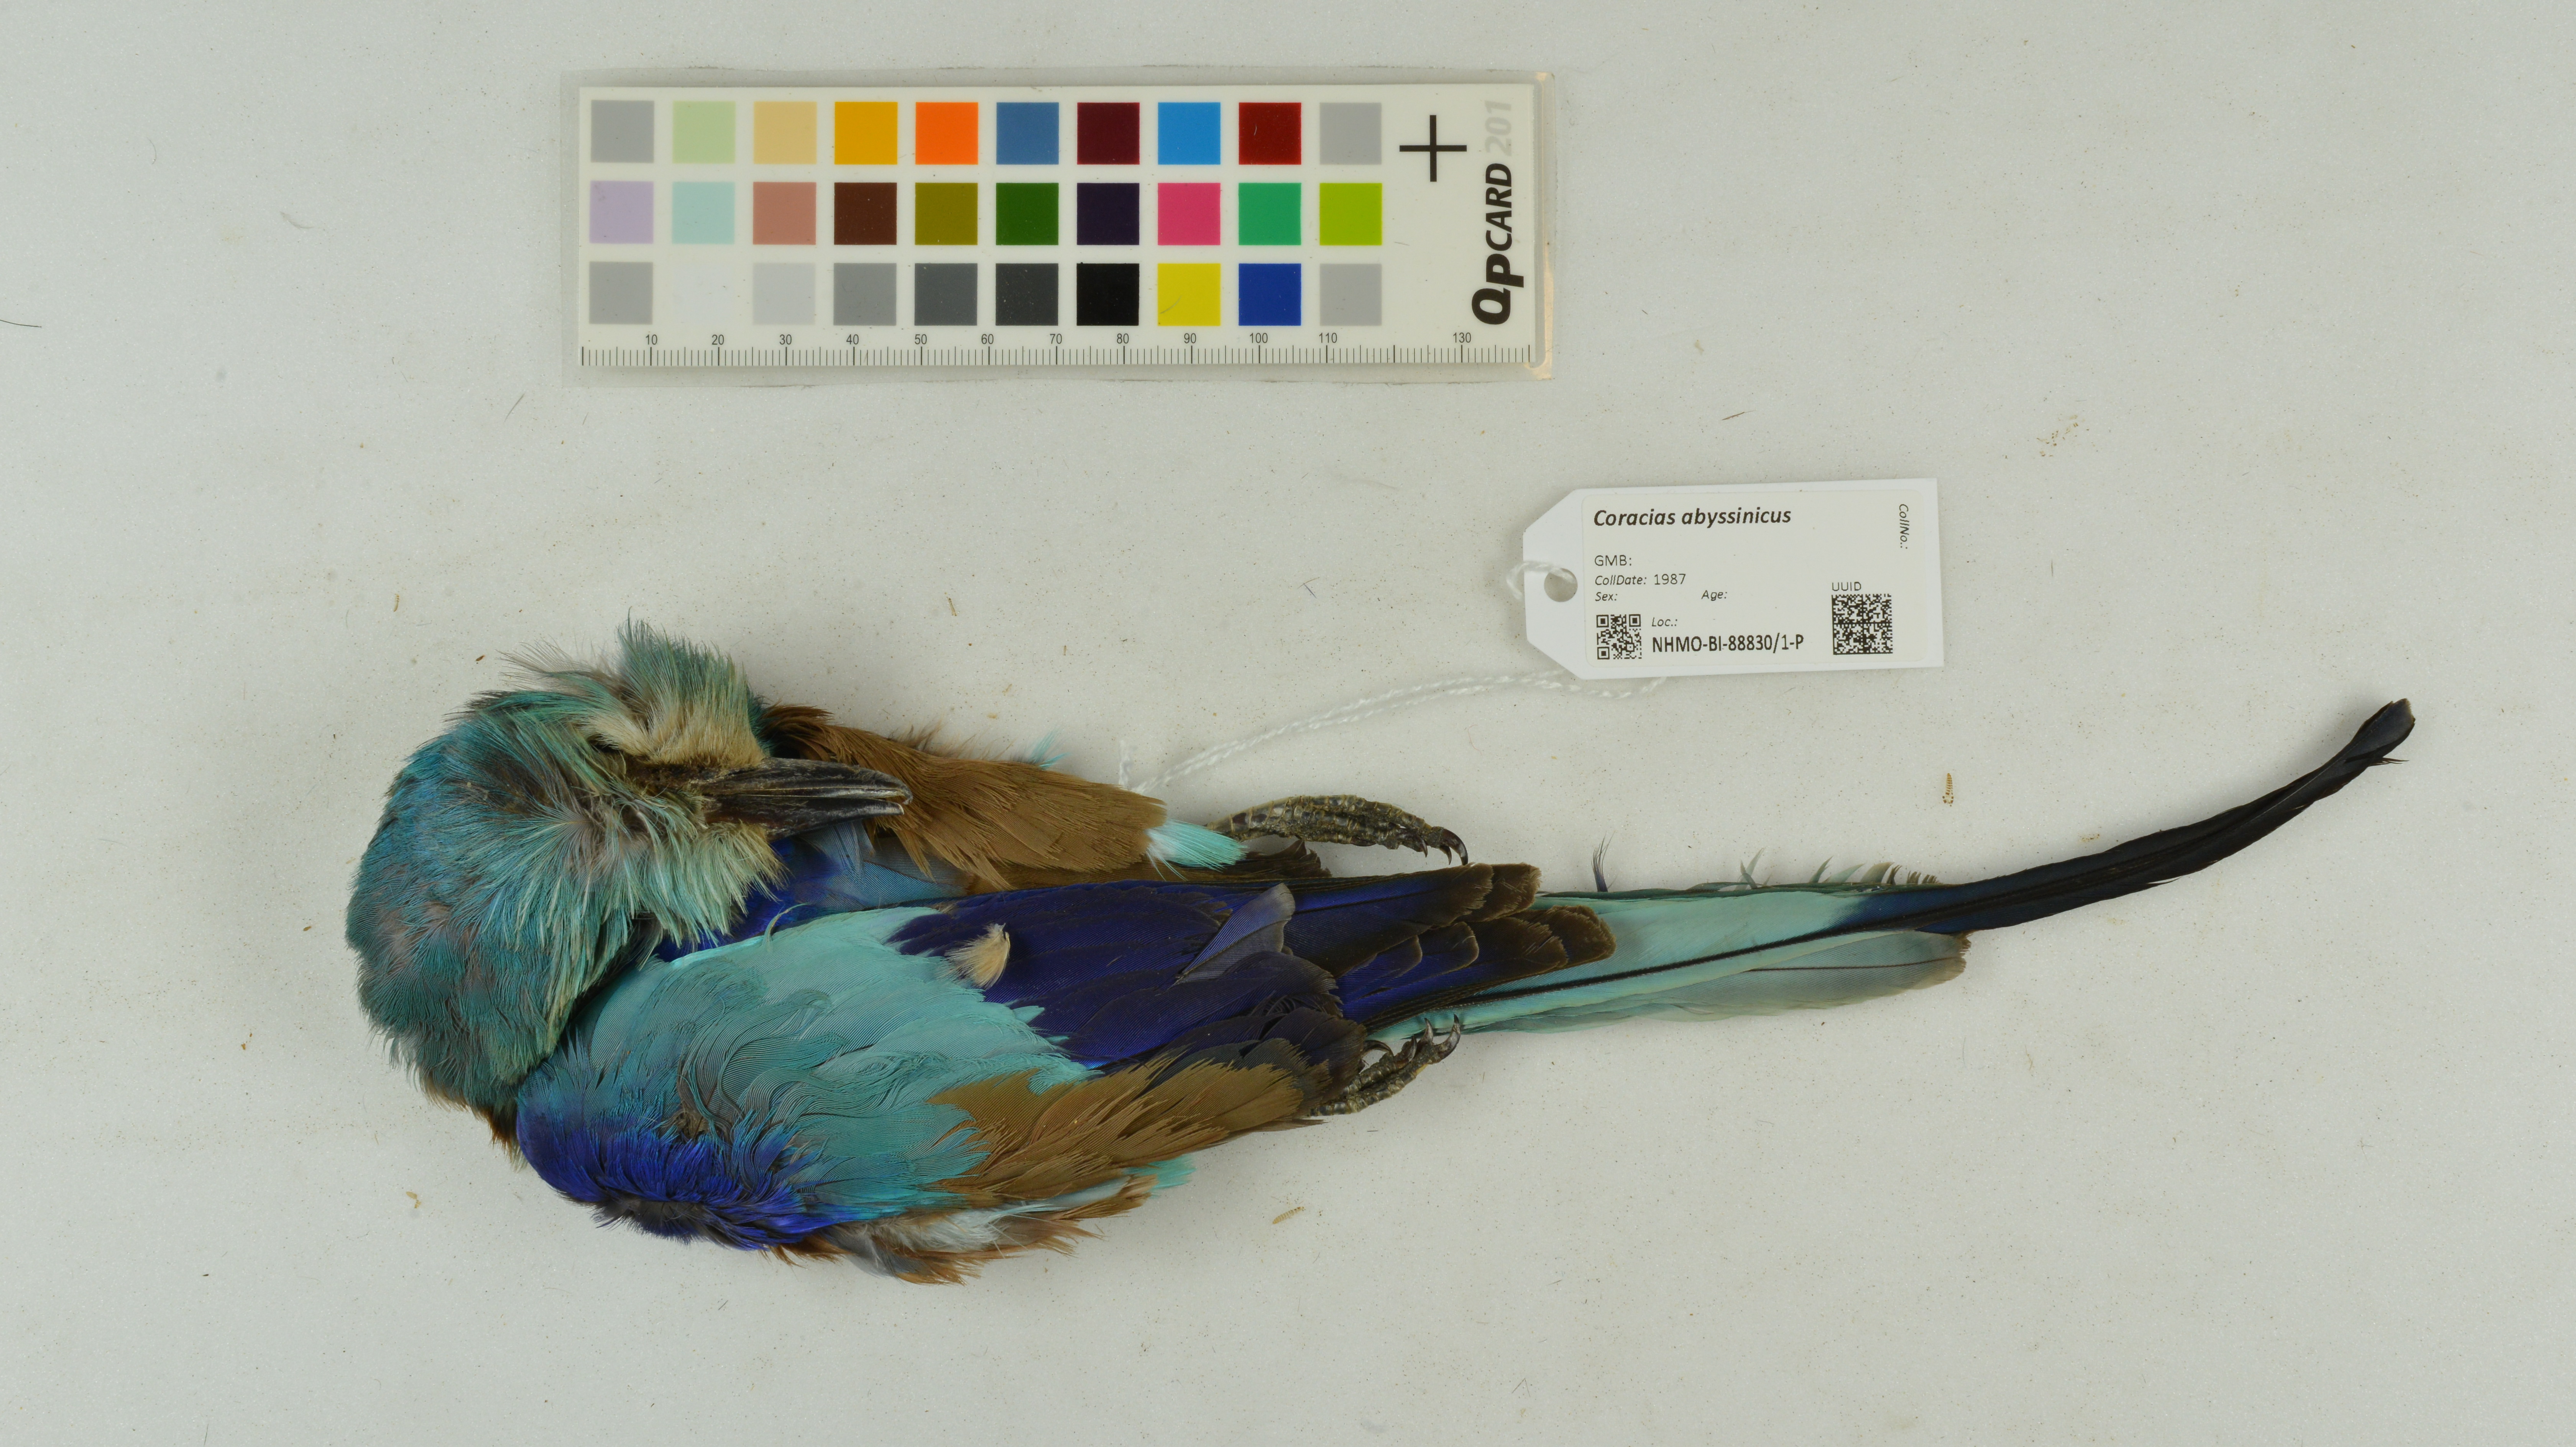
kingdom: Animalia
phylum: Chordata
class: Aves
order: Coraciiformes
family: Coraciidae
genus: Coracias
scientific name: Coracias abyssinicus
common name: Abyssinian roller
